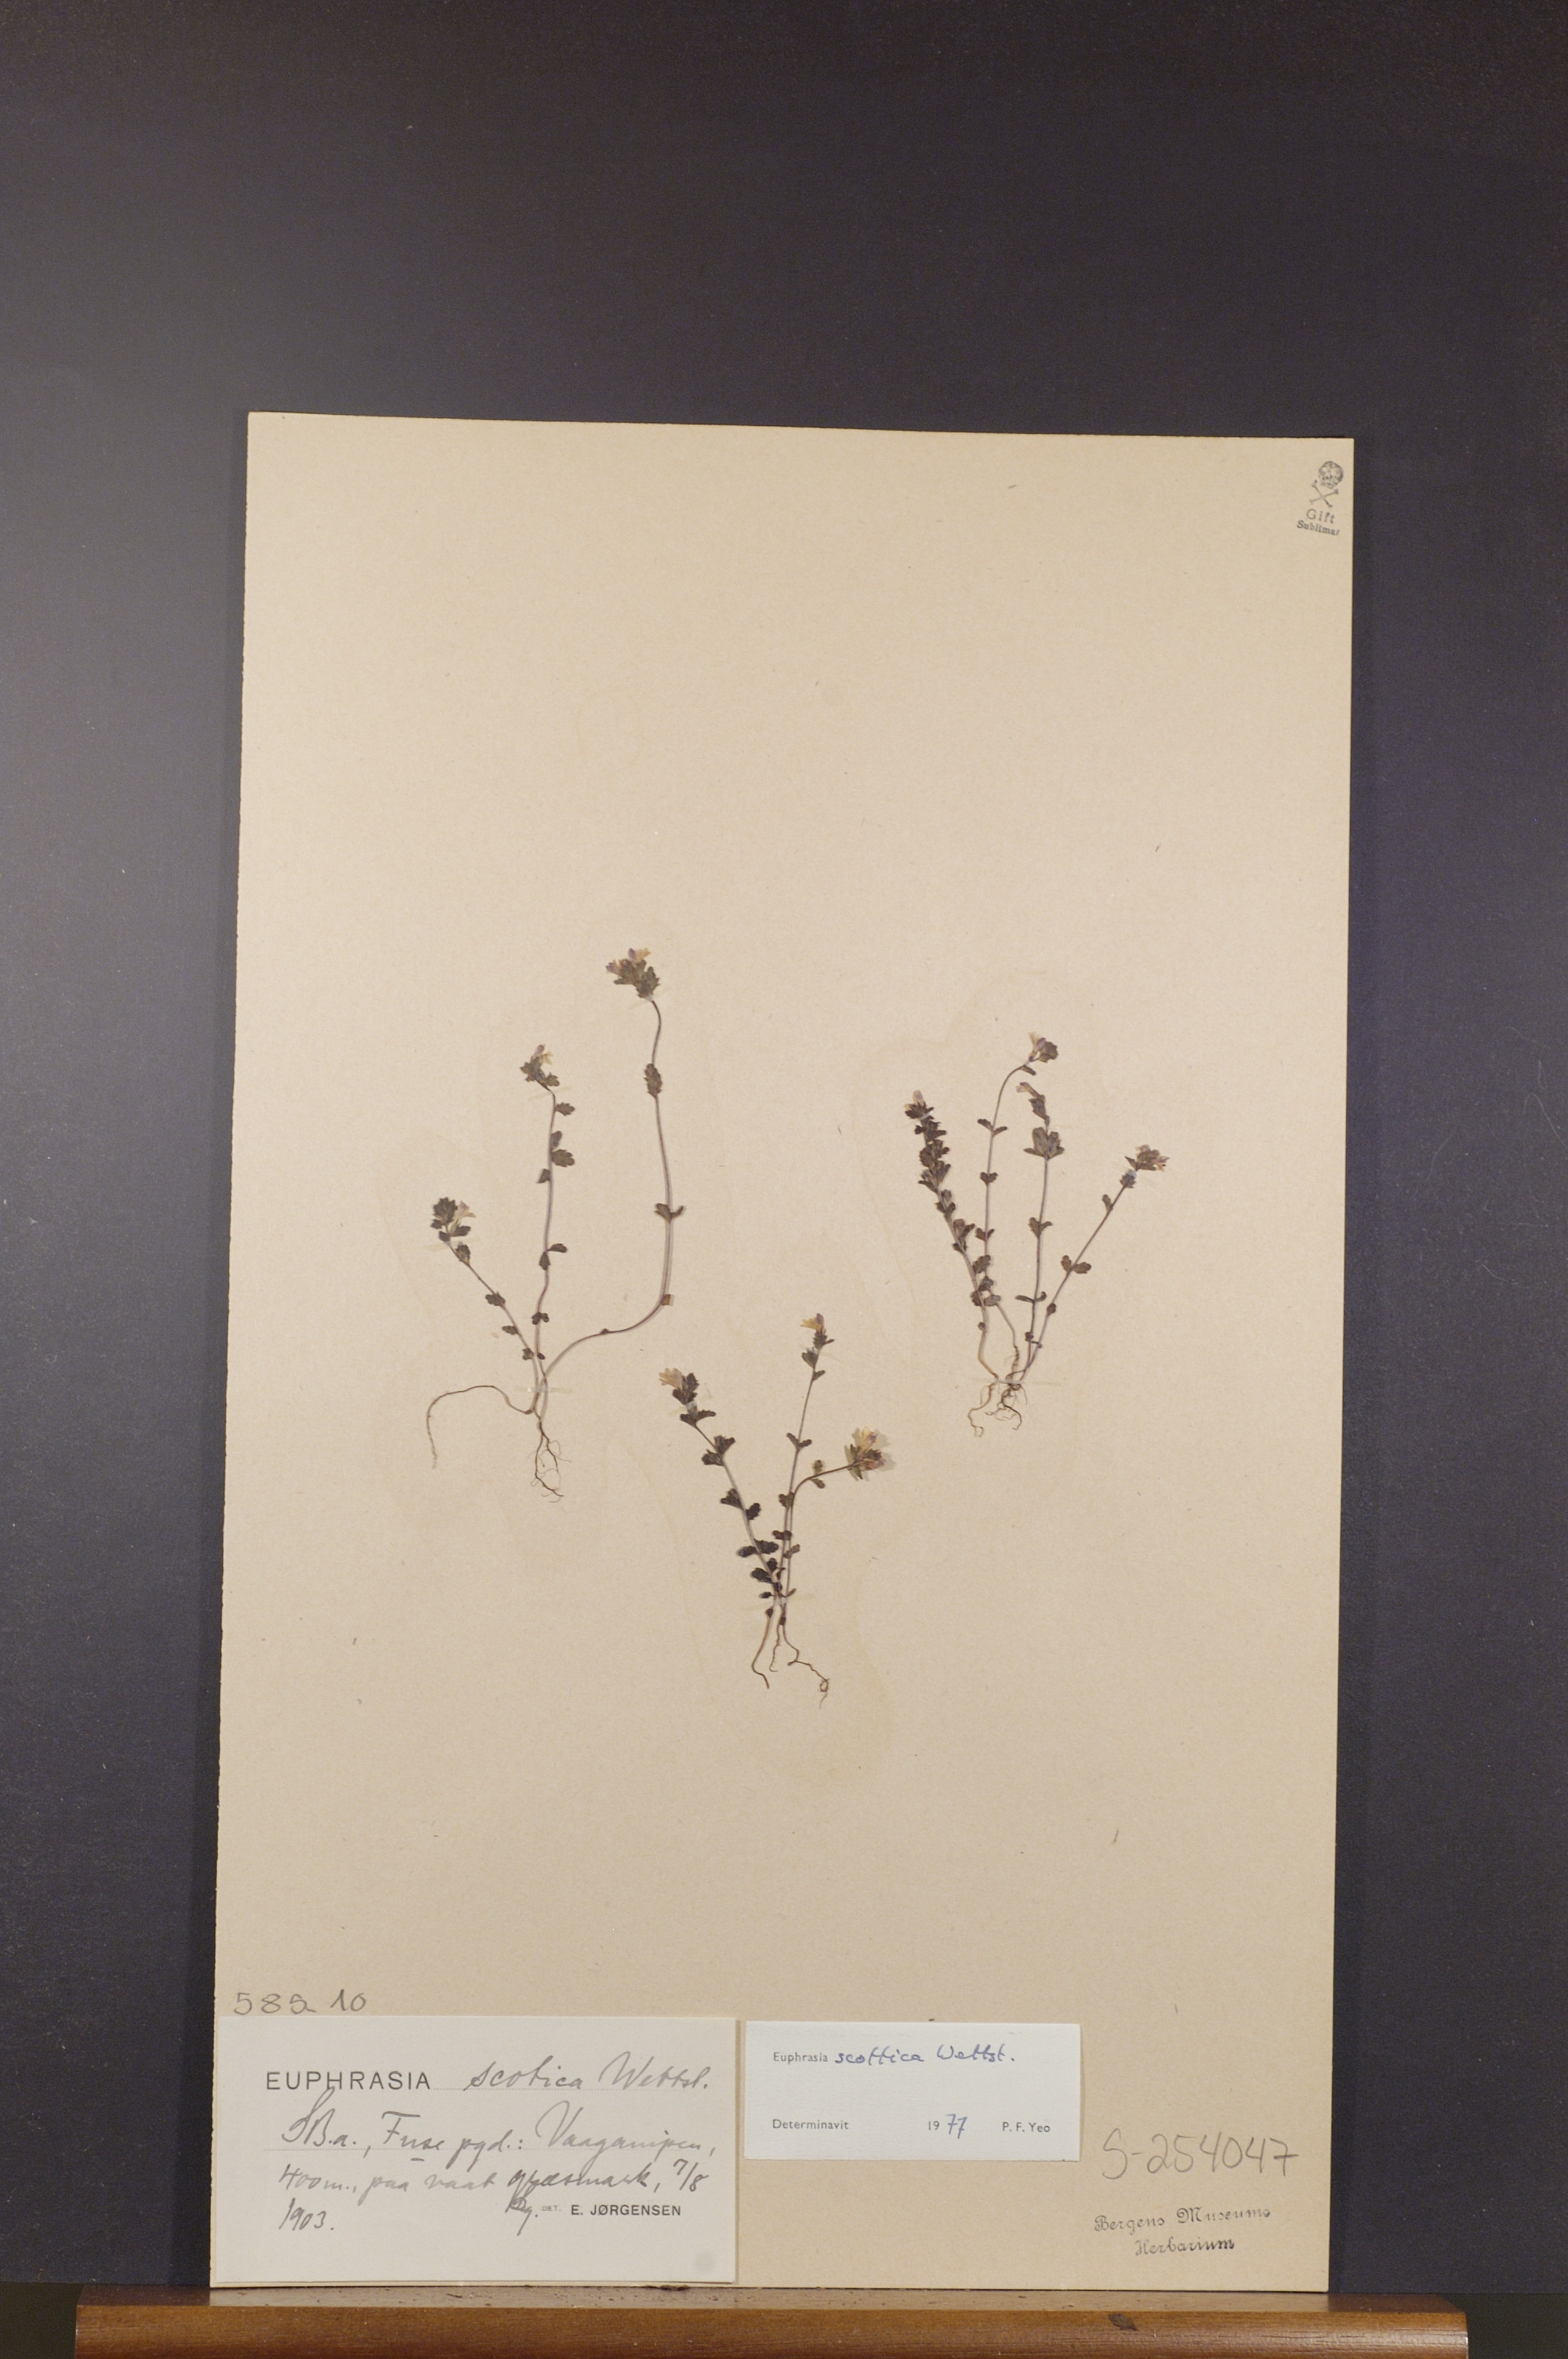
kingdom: Plantae
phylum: Tracheophyta
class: Magnoliopsida
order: Lamiales
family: Orobanchaceae
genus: Euphrasia
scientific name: Euphrasia scottica
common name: Slender scottish eyebright
